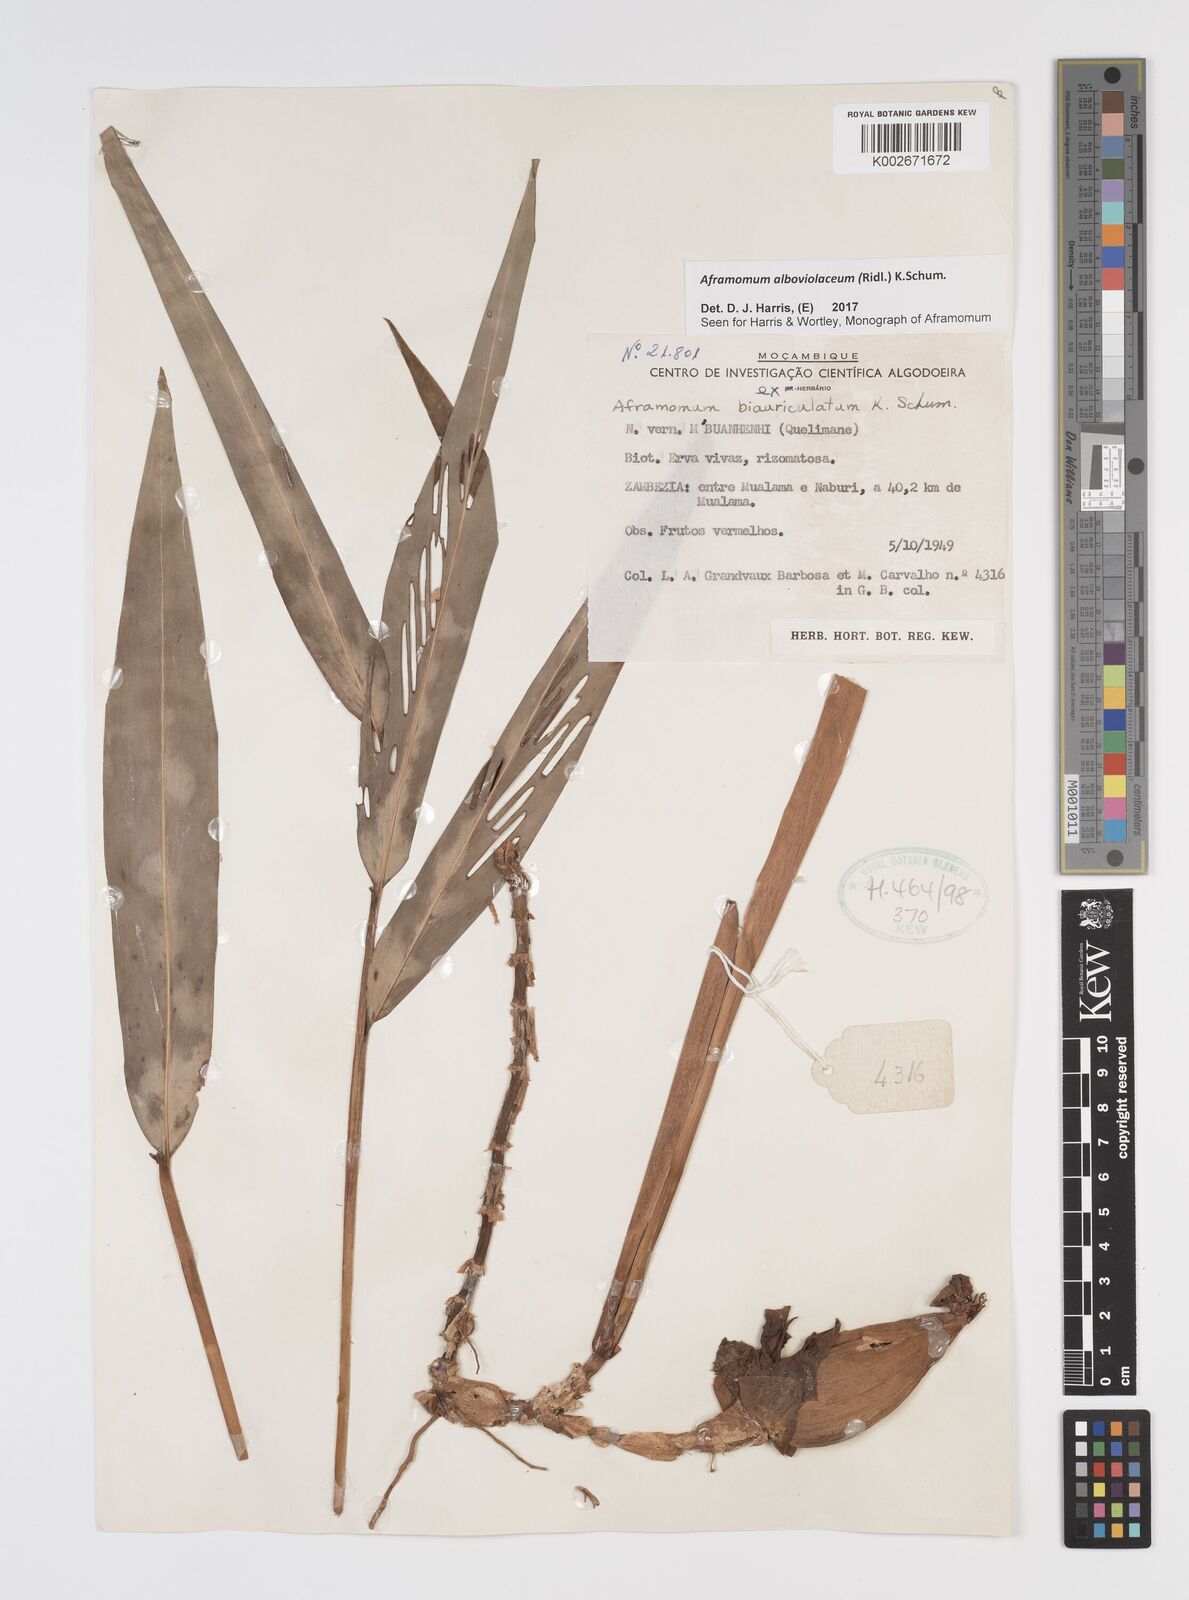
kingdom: Plantae
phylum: Tracheophyta
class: Liliopsida
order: Zingiberales
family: Zingiberaceae
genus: Aframomum
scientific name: Aframomum alboviolaceum
